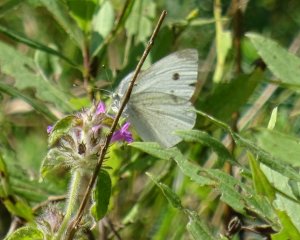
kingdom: Animalia
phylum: Arthropoda
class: Insecta
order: Lepidoptera
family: Pieridae
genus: Pieris
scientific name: Pieris rapae
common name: Cabbage White
